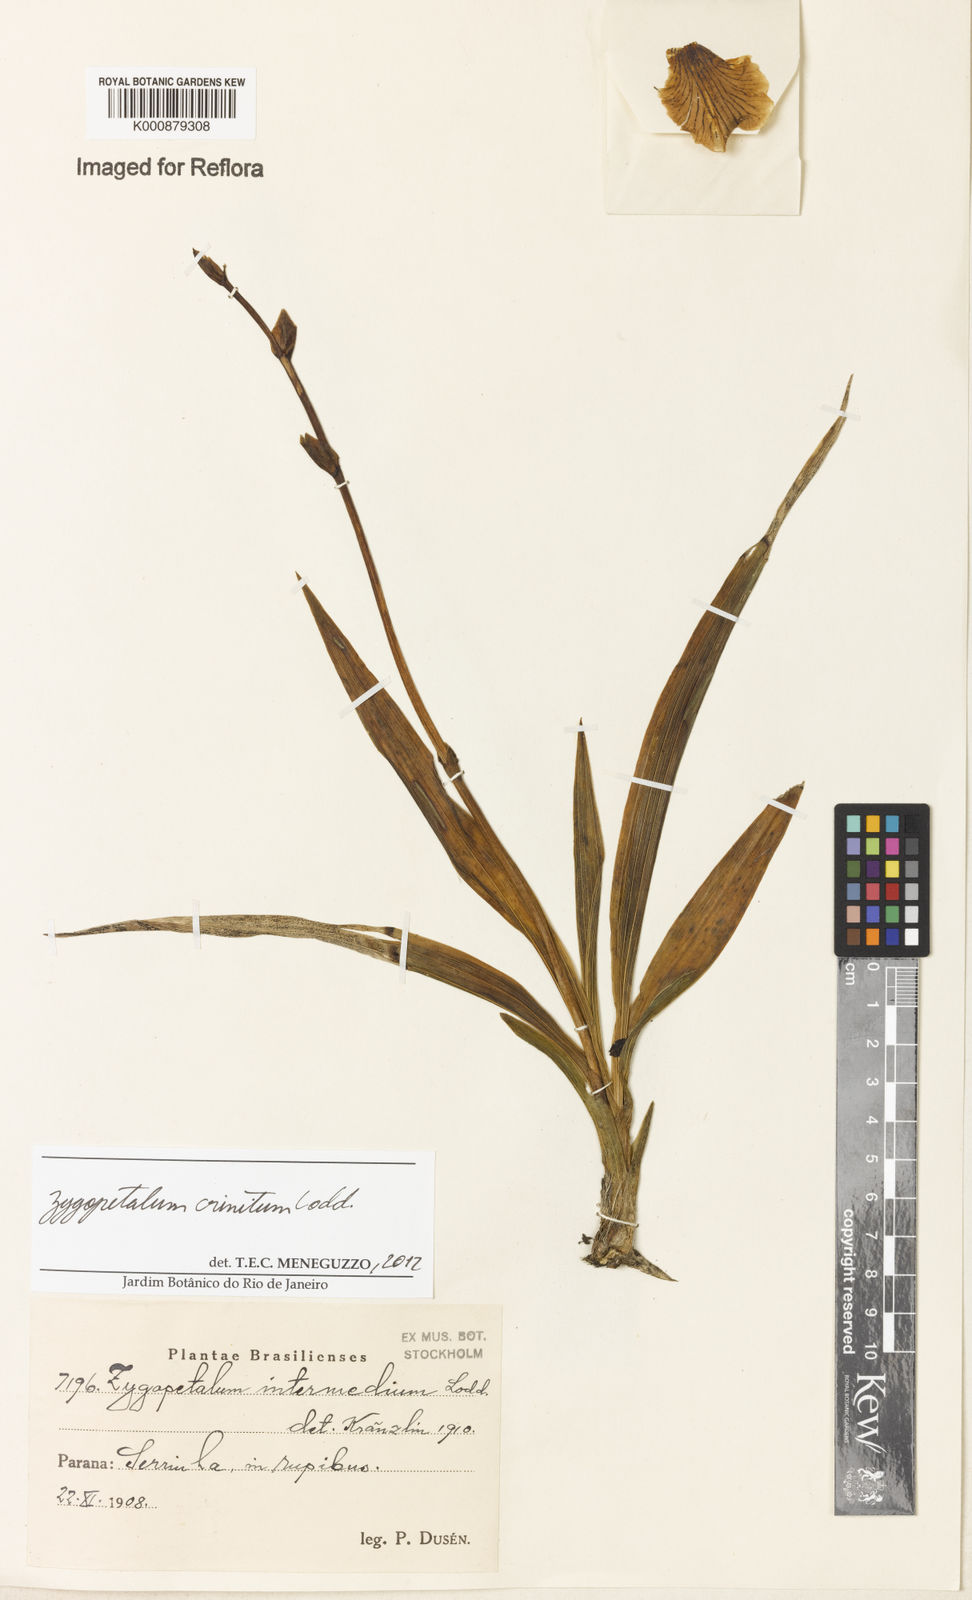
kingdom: Plantae
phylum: Tracheophyta
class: Liliopsida
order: Asparagales
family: Orchidaceae
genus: Zygopetalum
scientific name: Zygopetalum crinitum
